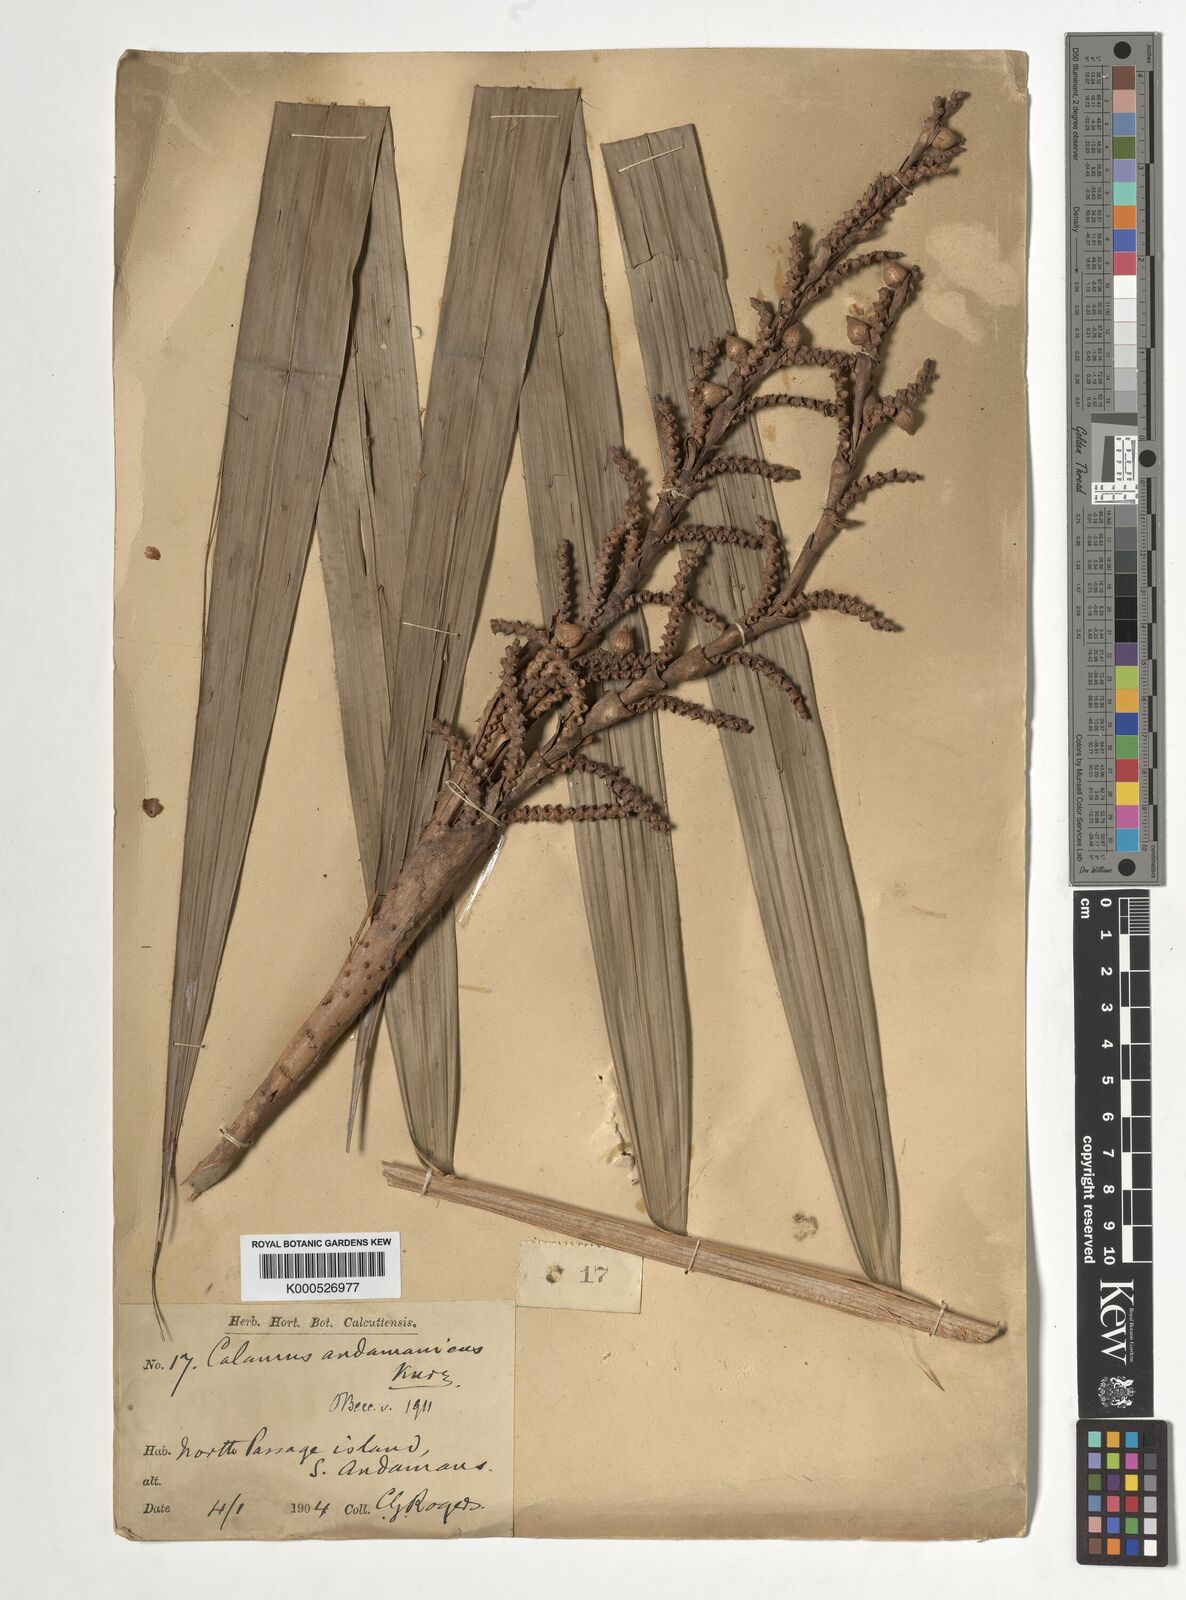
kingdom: Plantae
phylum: Tracheophyta
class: Liliopsida
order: Arecales
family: Arecaceae
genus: Calamus
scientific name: Calamus andamanicus
